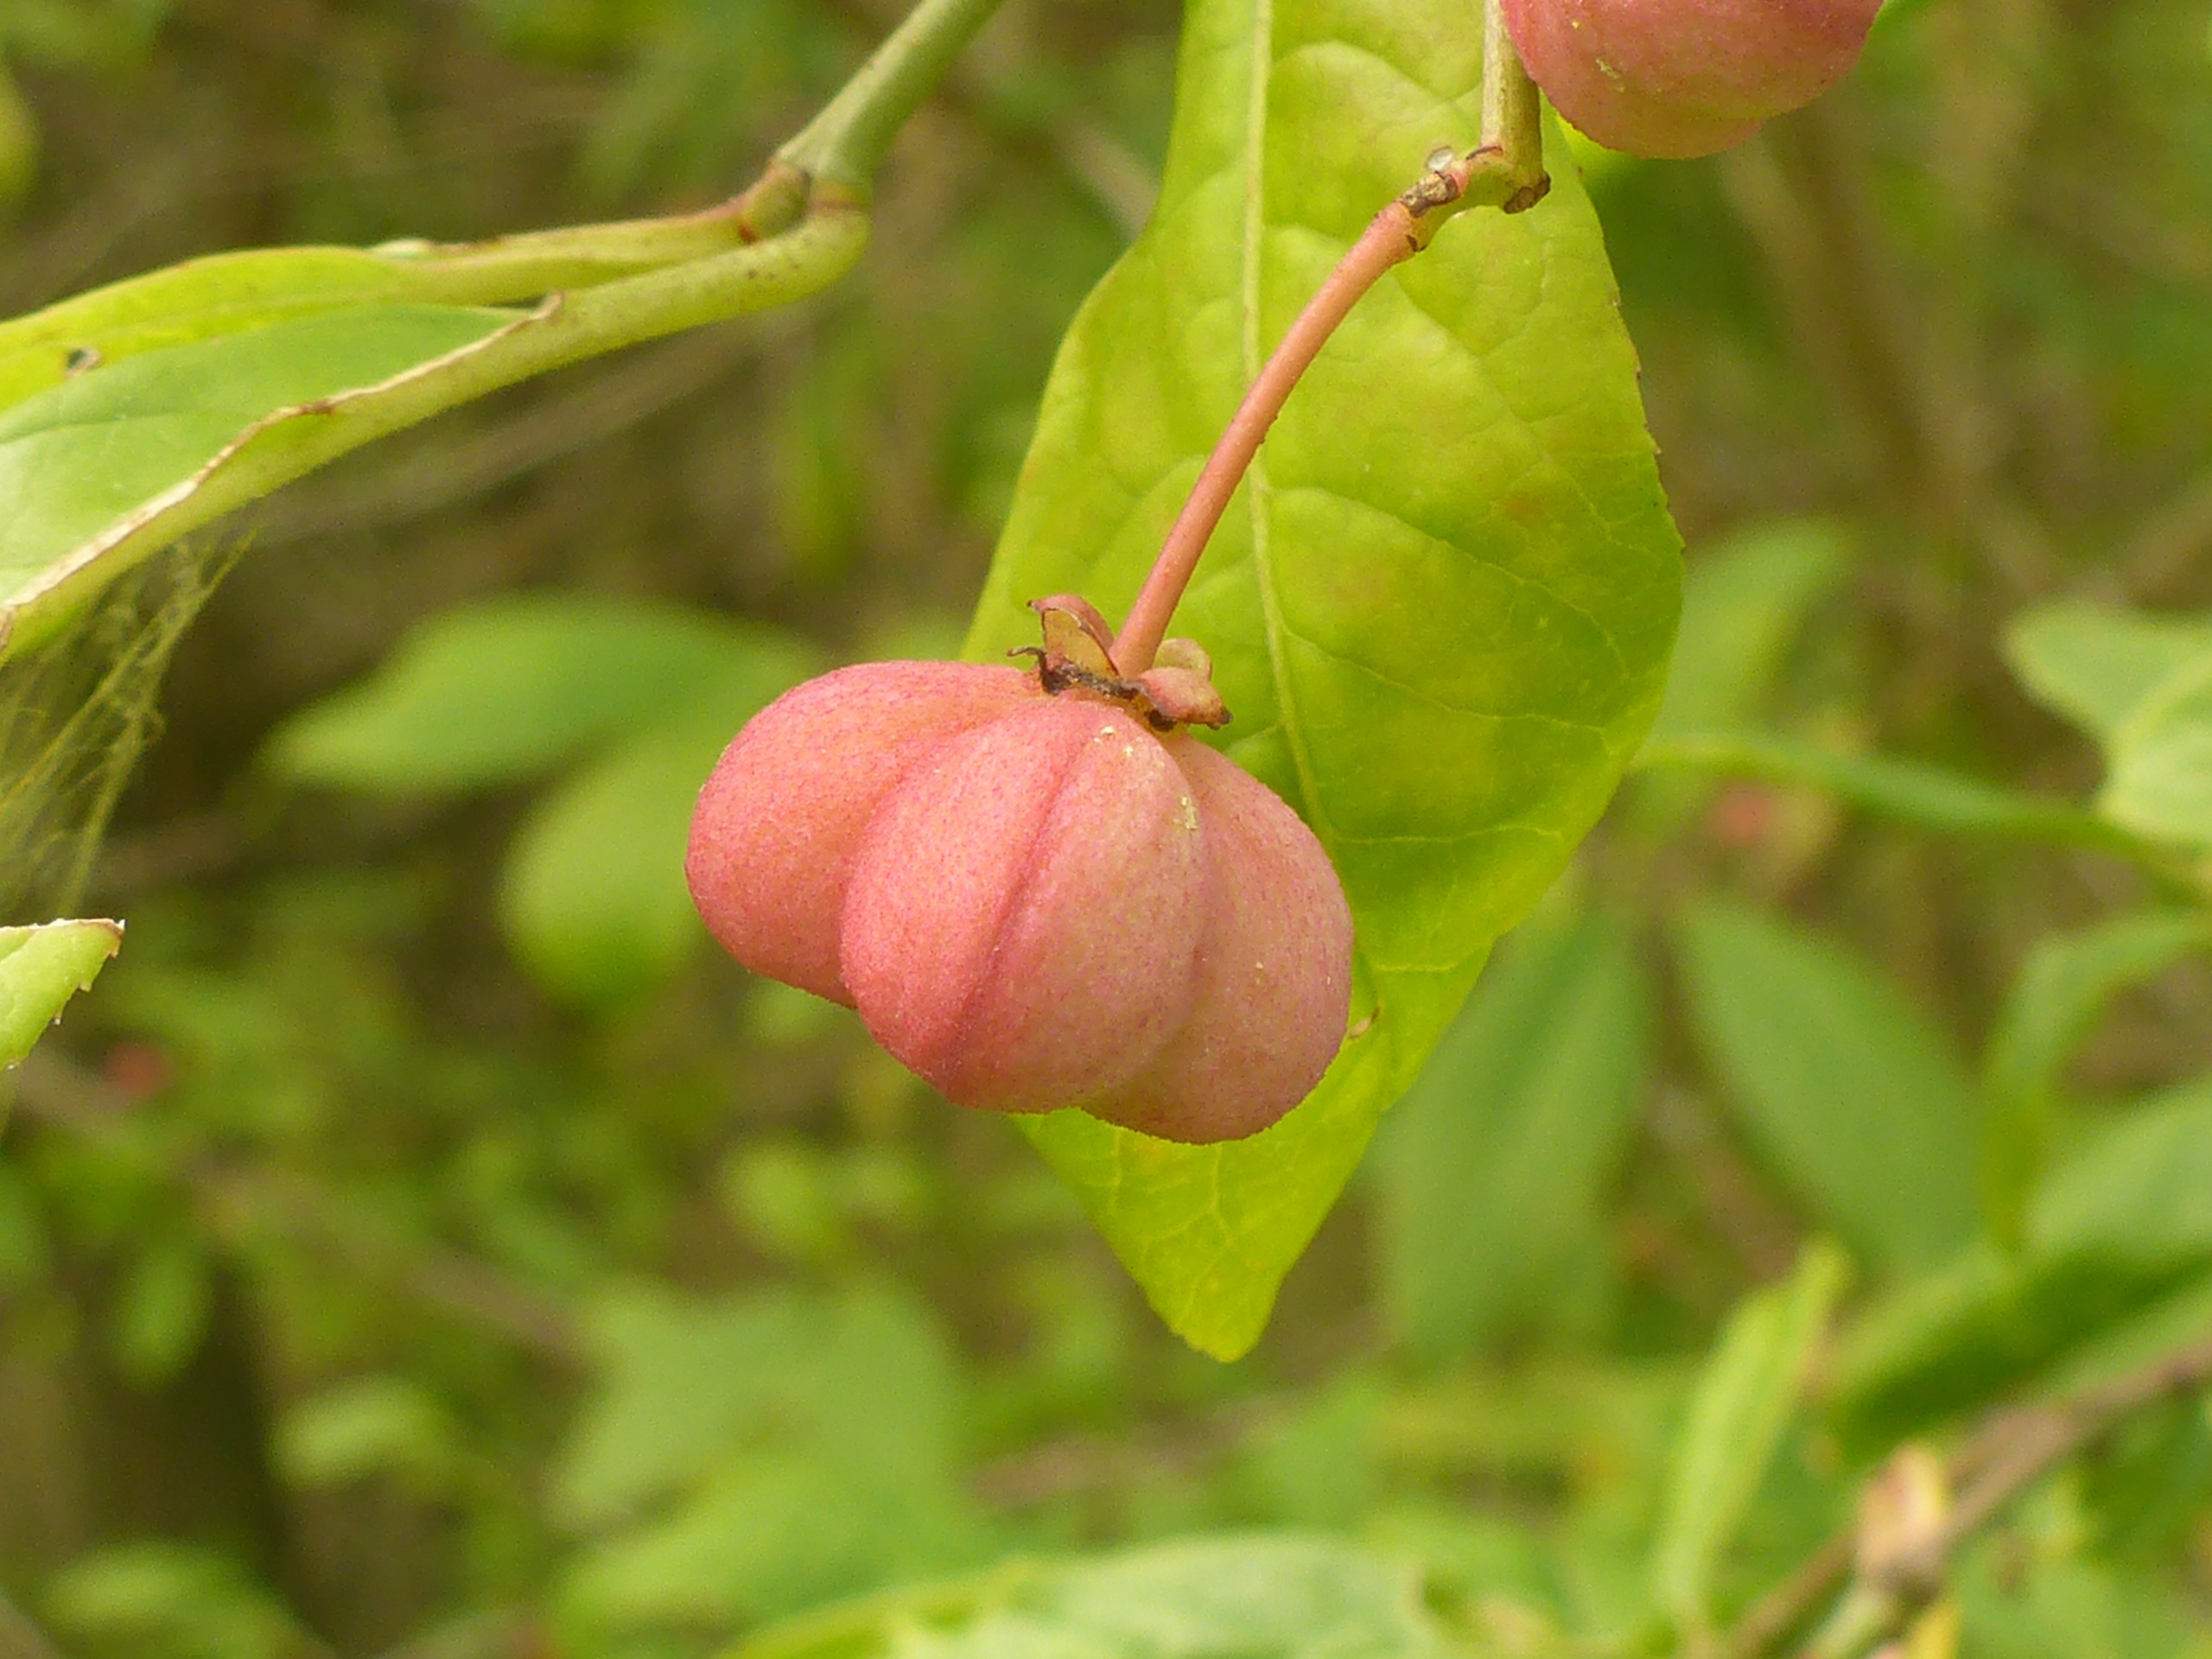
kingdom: Plantae
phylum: Tracheophyta
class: Magnoliopsida
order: Celastrales
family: Celastraceae
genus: Euonymus
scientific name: Euonymus europaeus
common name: Benved
